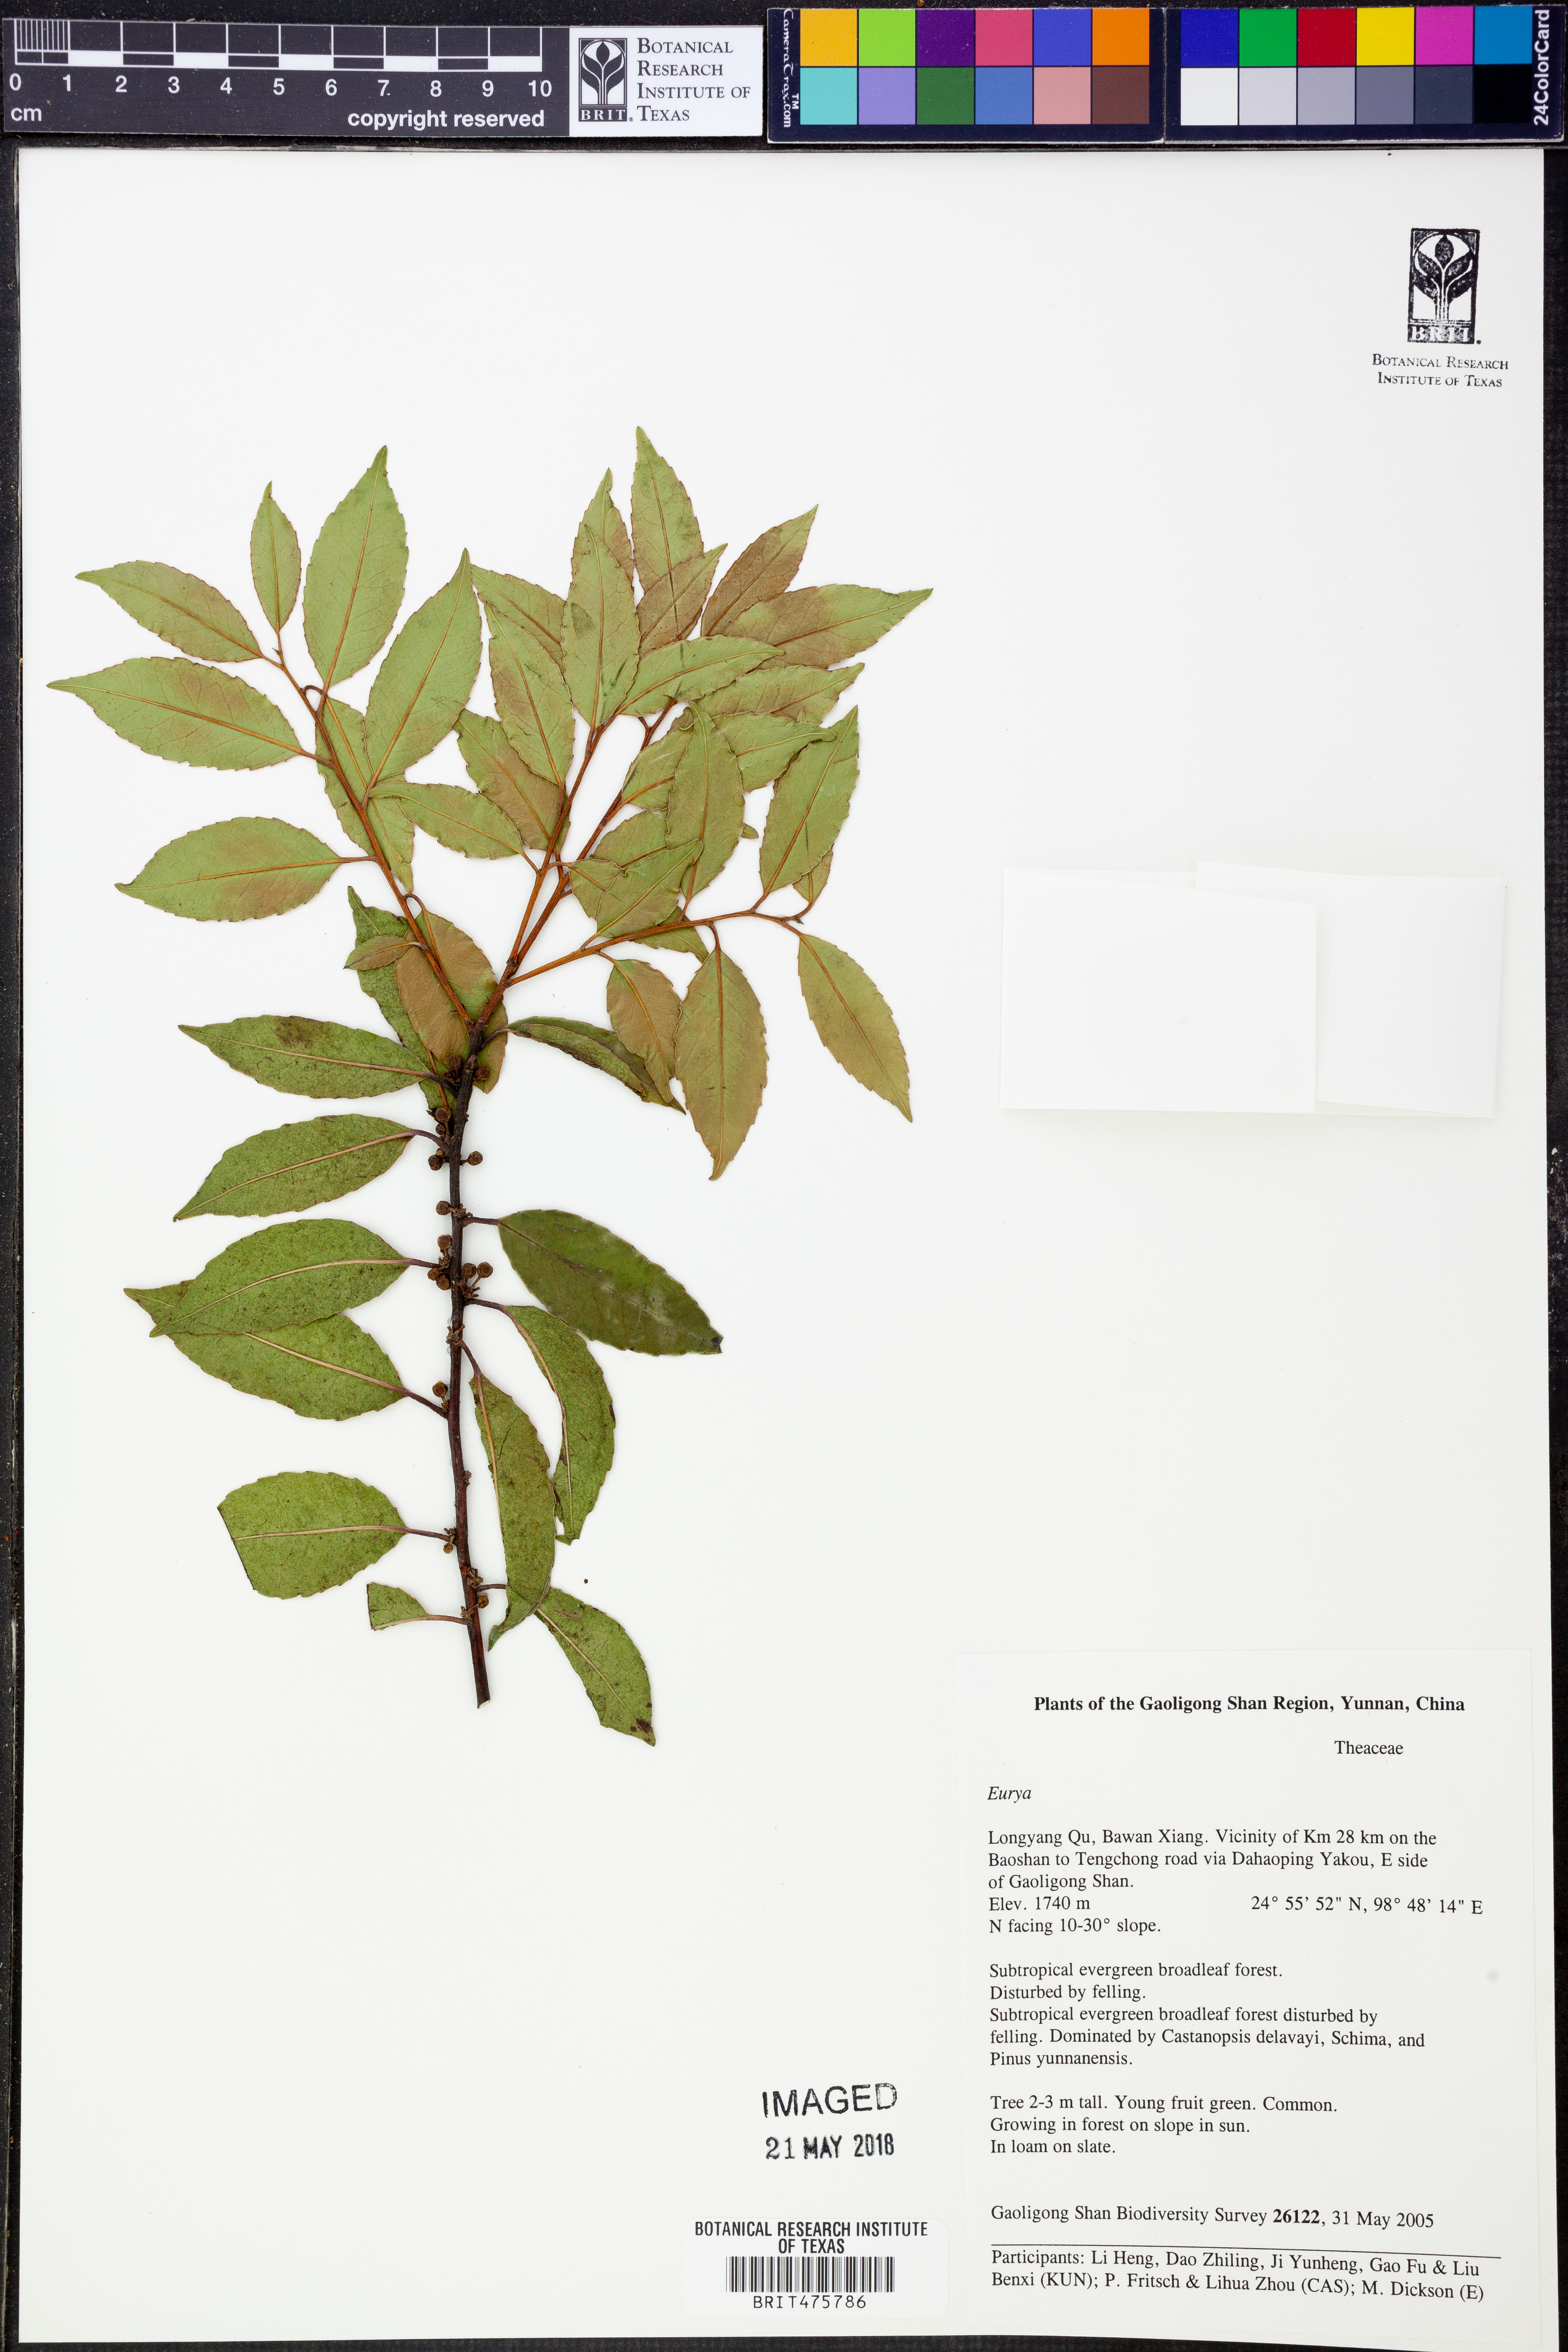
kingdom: Plantae
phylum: Tracheophyta
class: Magnoliopsida
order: Ericales
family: Pentaphylacaceae
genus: Eurya
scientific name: Eurya
